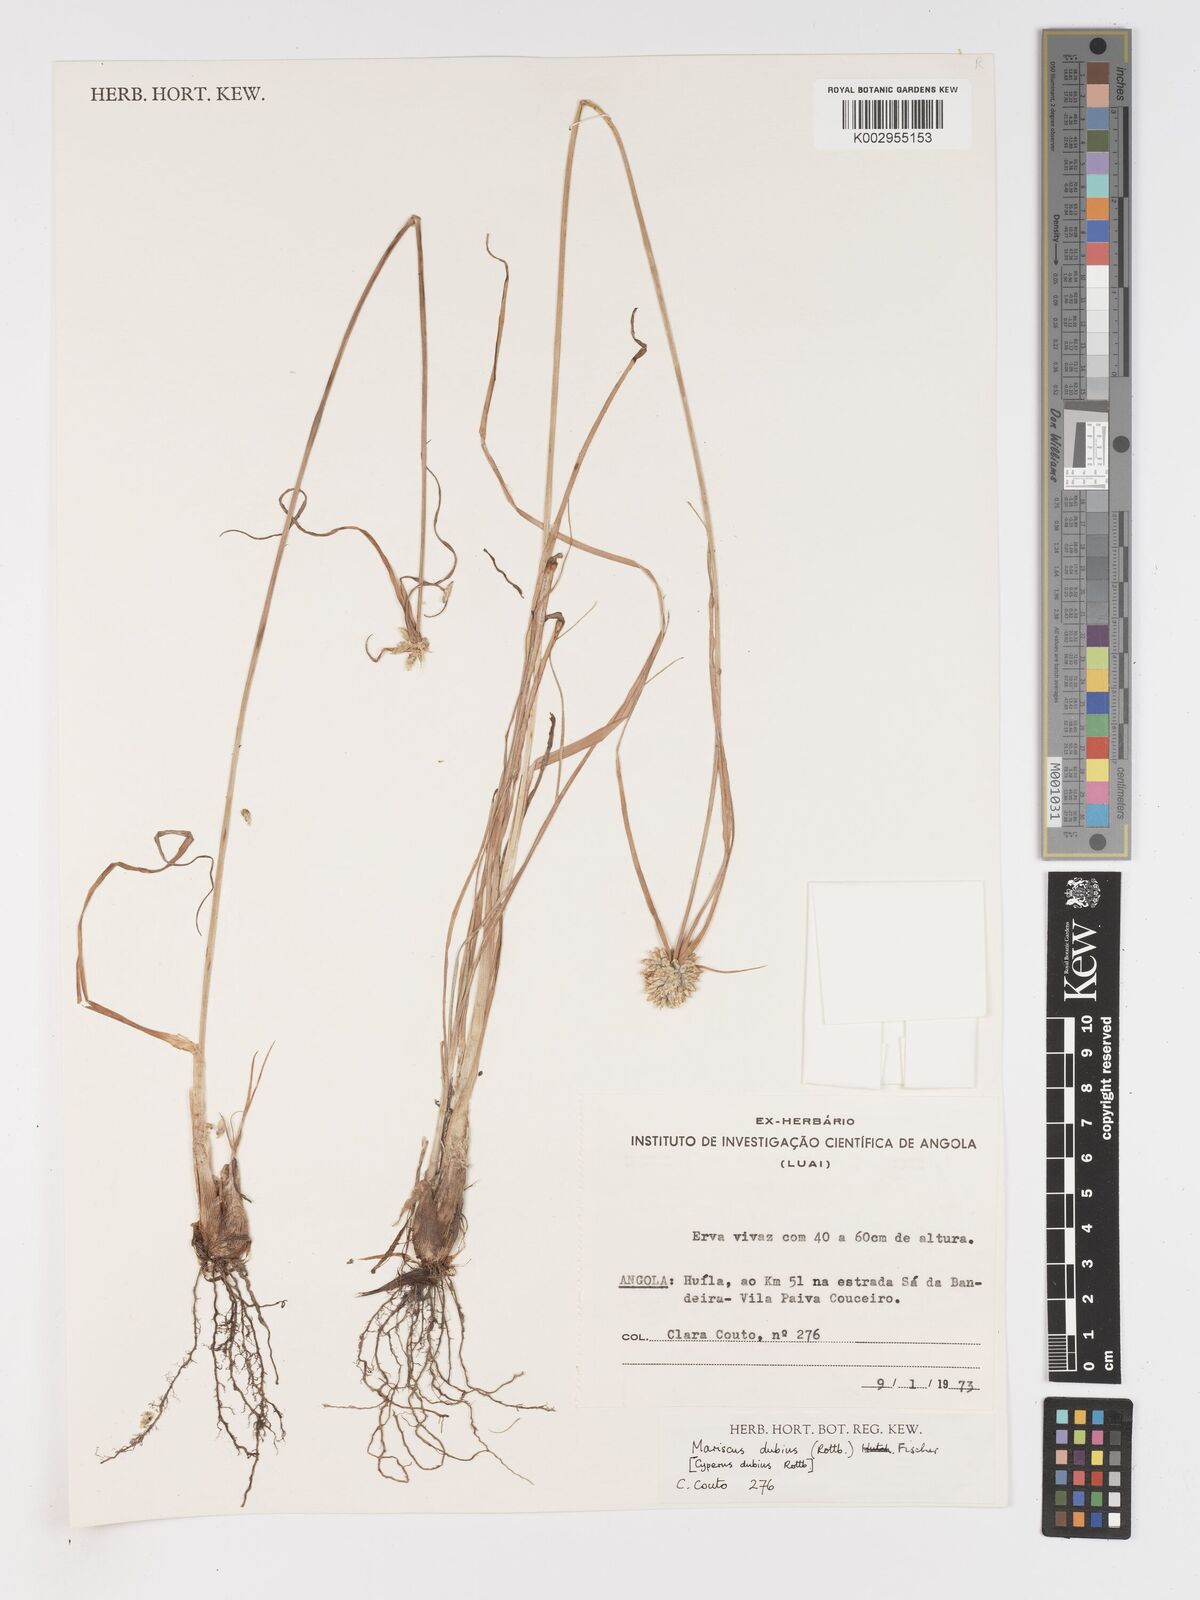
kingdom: Plantae
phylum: Tracheophyta
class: Liliopsida
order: Poales
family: Cyperaceae
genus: Cyperus
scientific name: Cyperus dubius
